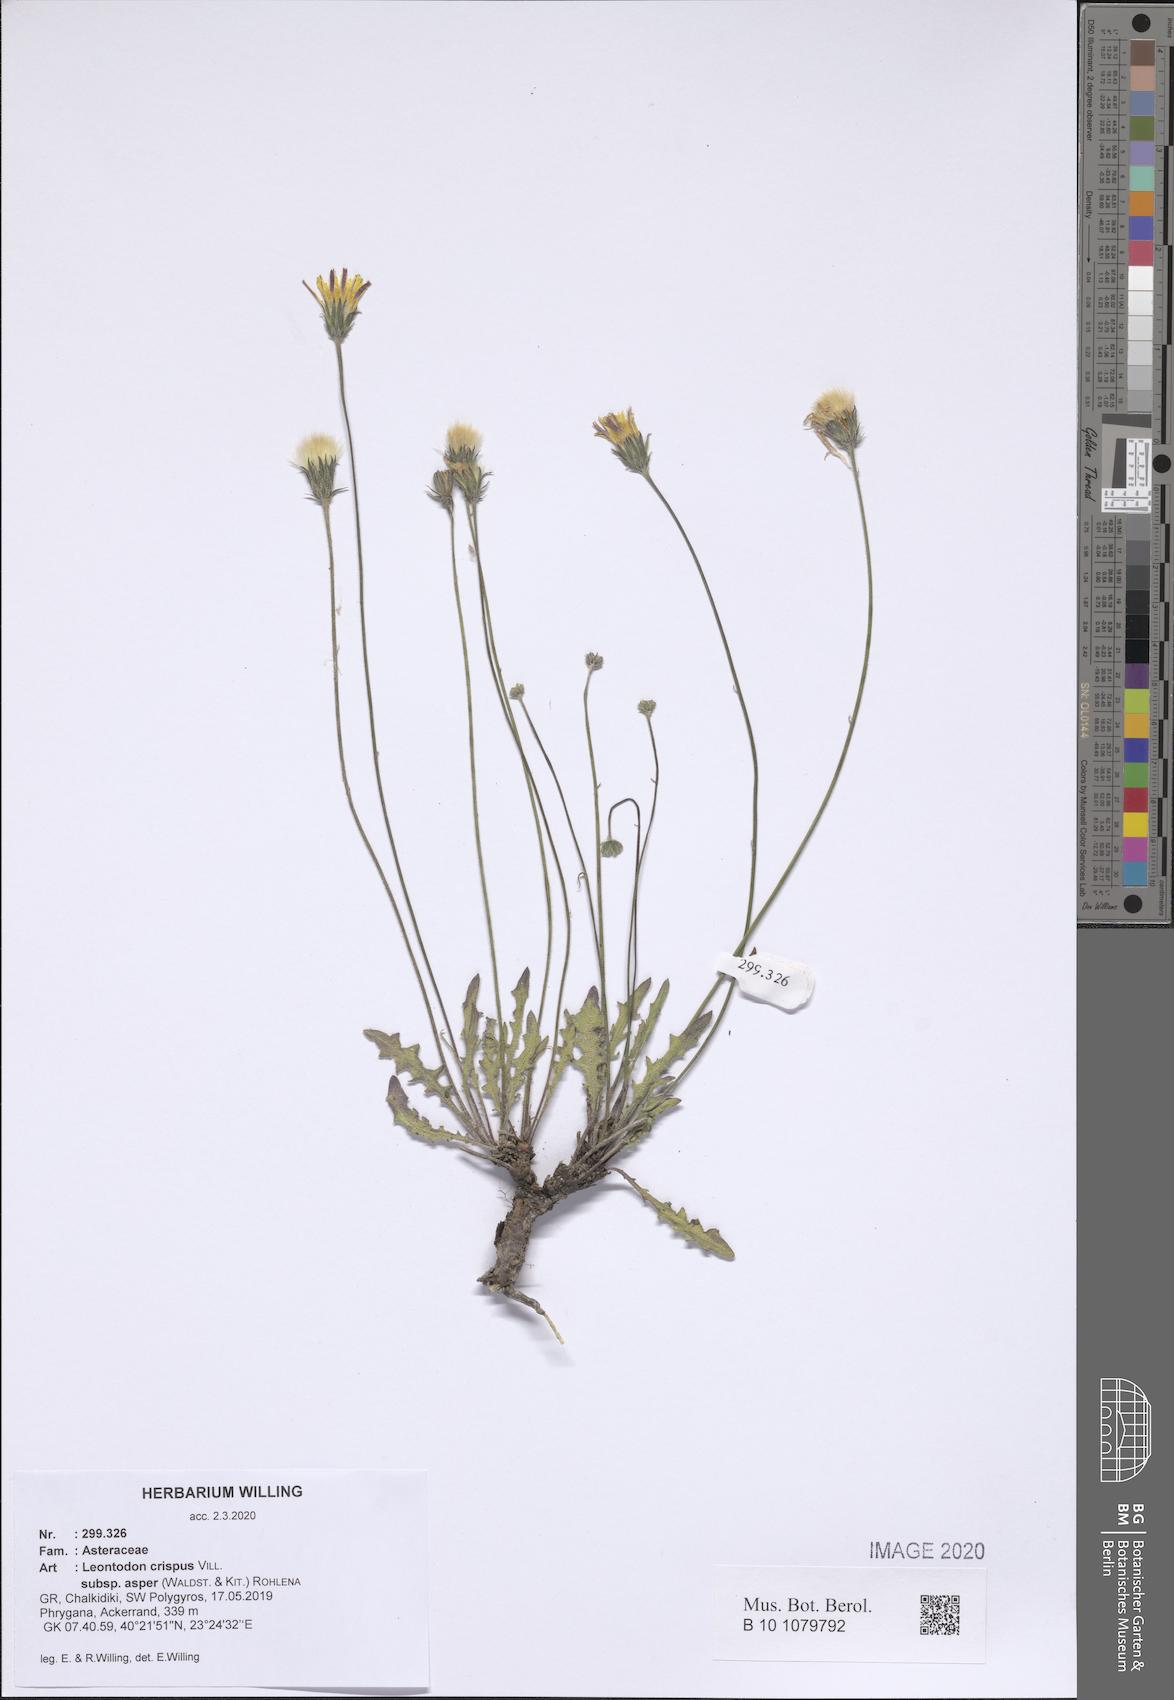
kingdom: Plantae
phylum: Tracheophyta
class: Magnoliopsida
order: Asterales
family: Asteraceae
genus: Leontodon
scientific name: Leontodon biscutellifolius
